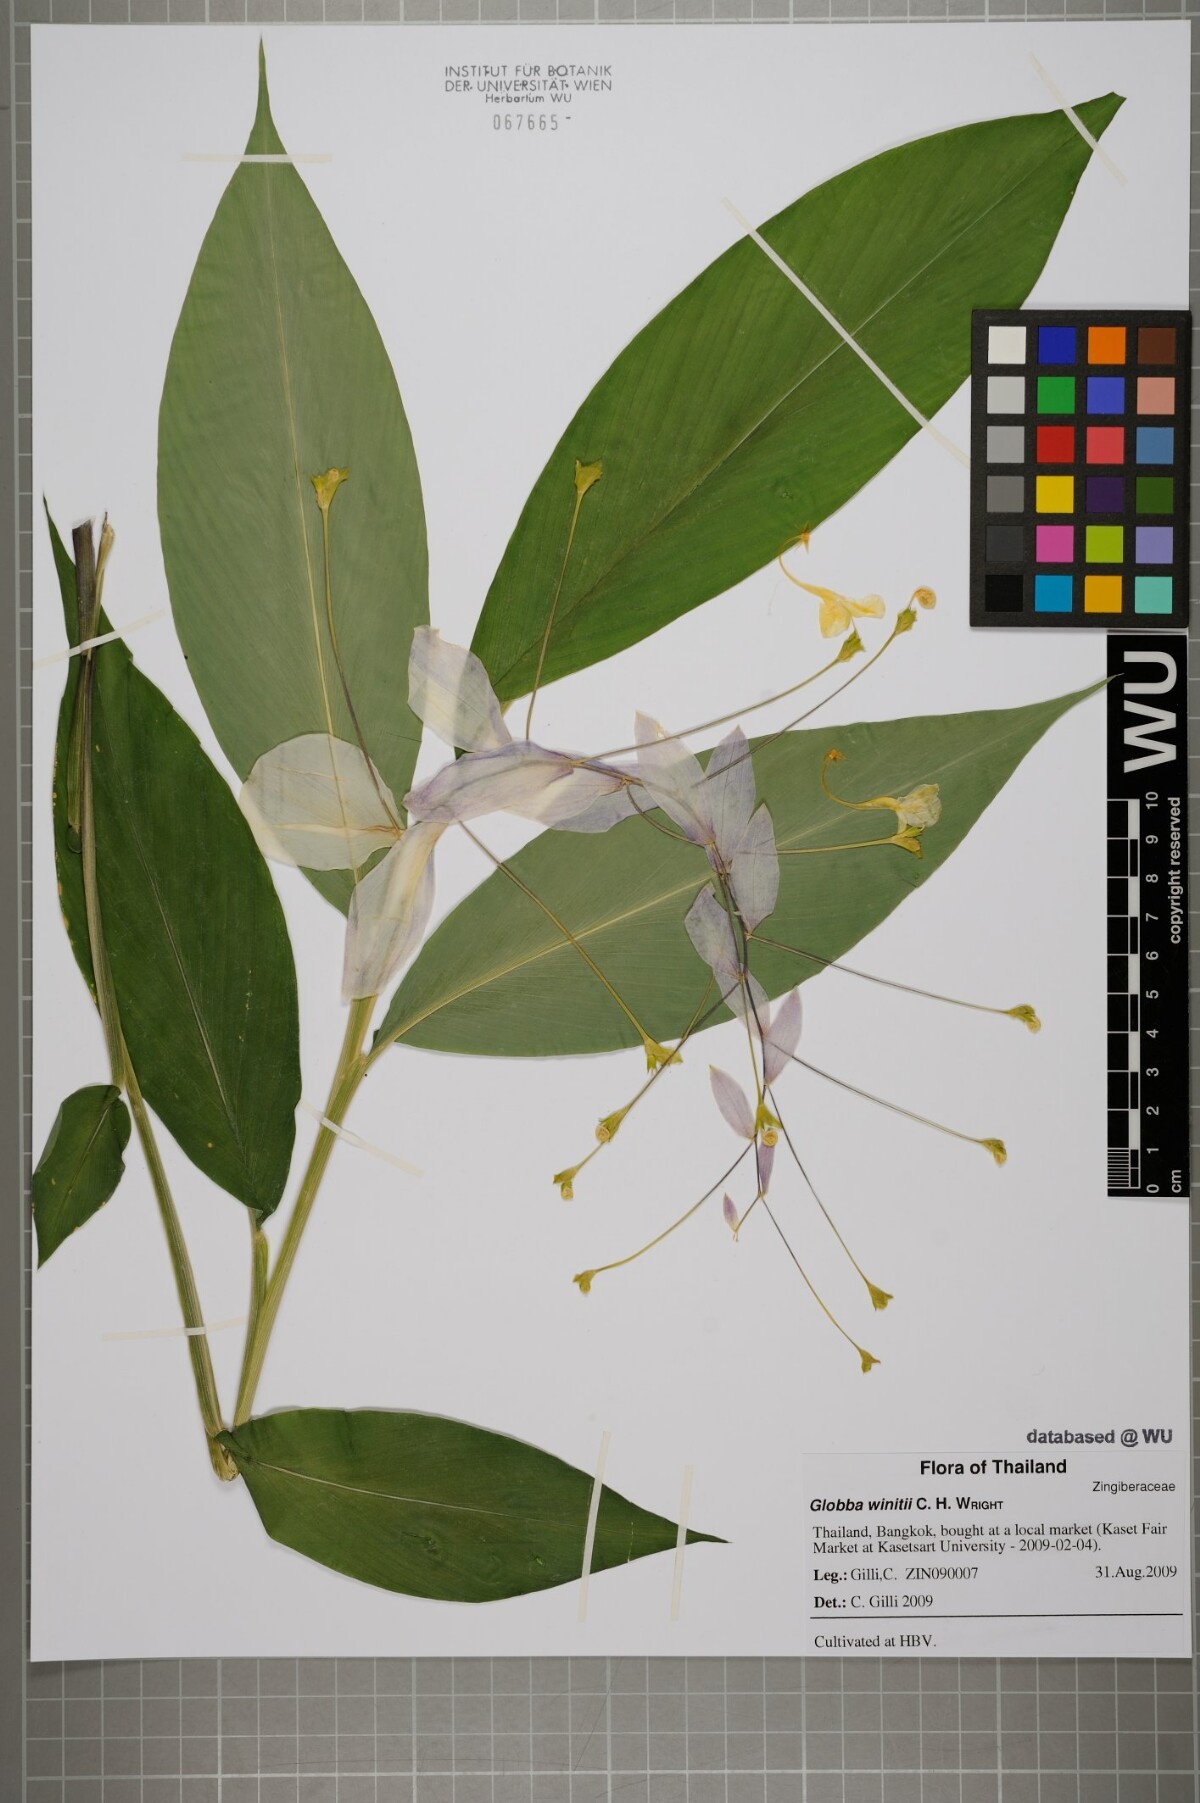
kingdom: Plantae
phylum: Tracheophyta
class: Liliopsida
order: Zingiberales
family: Zingiberaceae
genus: Globba
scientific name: Globba winitii
